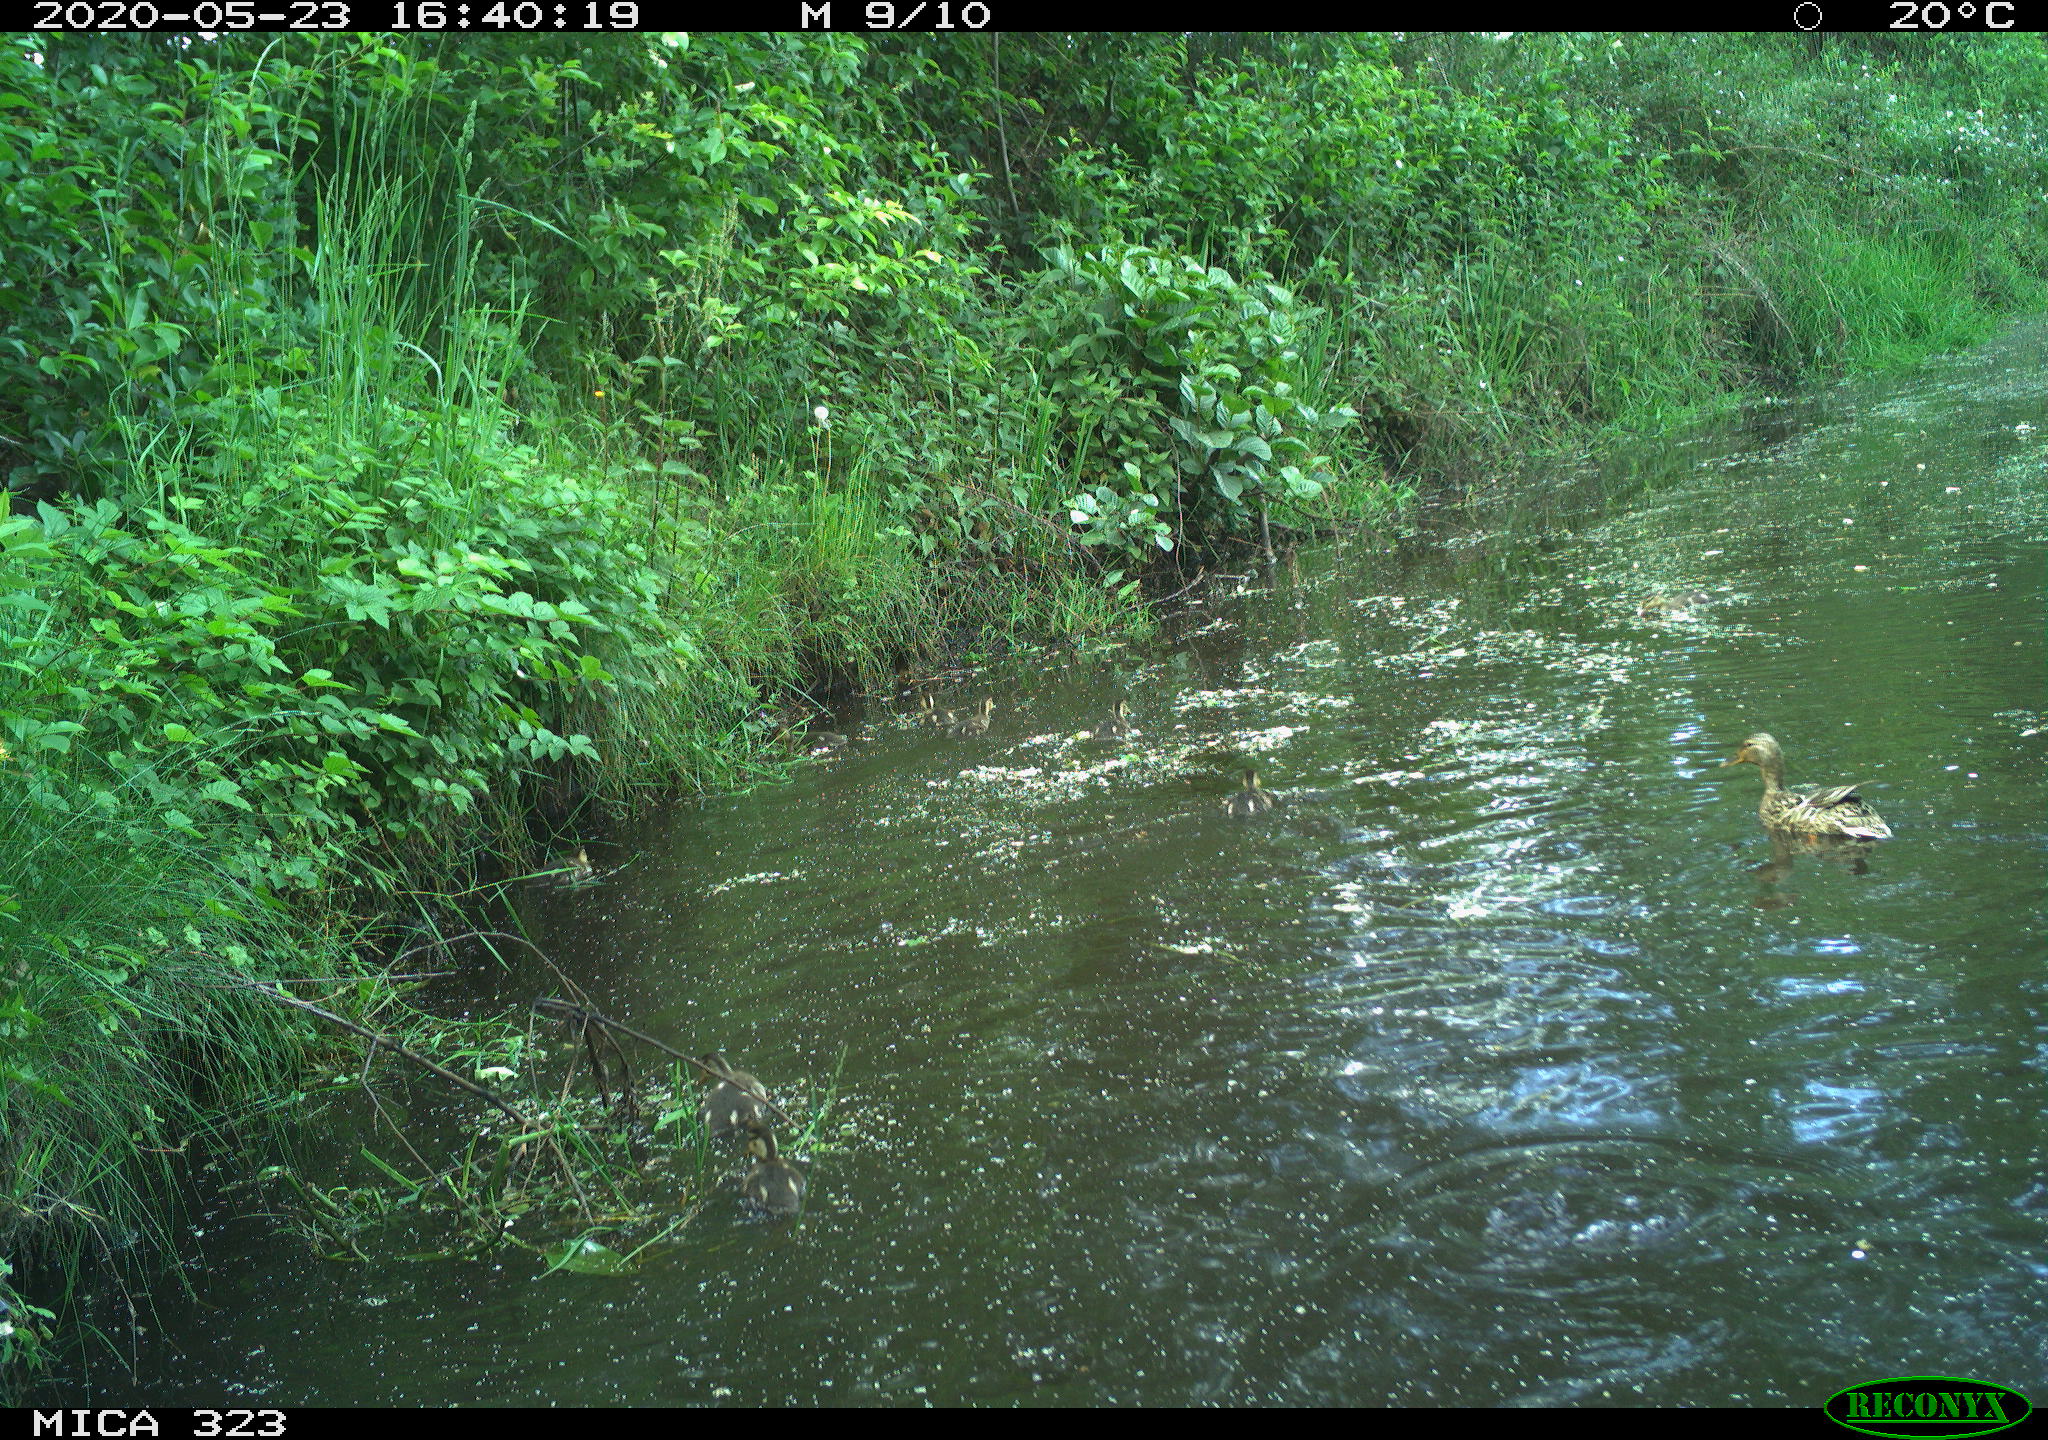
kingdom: Animalia
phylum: Chordata
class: Aves
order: Anseriformes
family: Anatidae
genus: Anas
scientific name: Anas platyrhynchos
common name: Mallard
